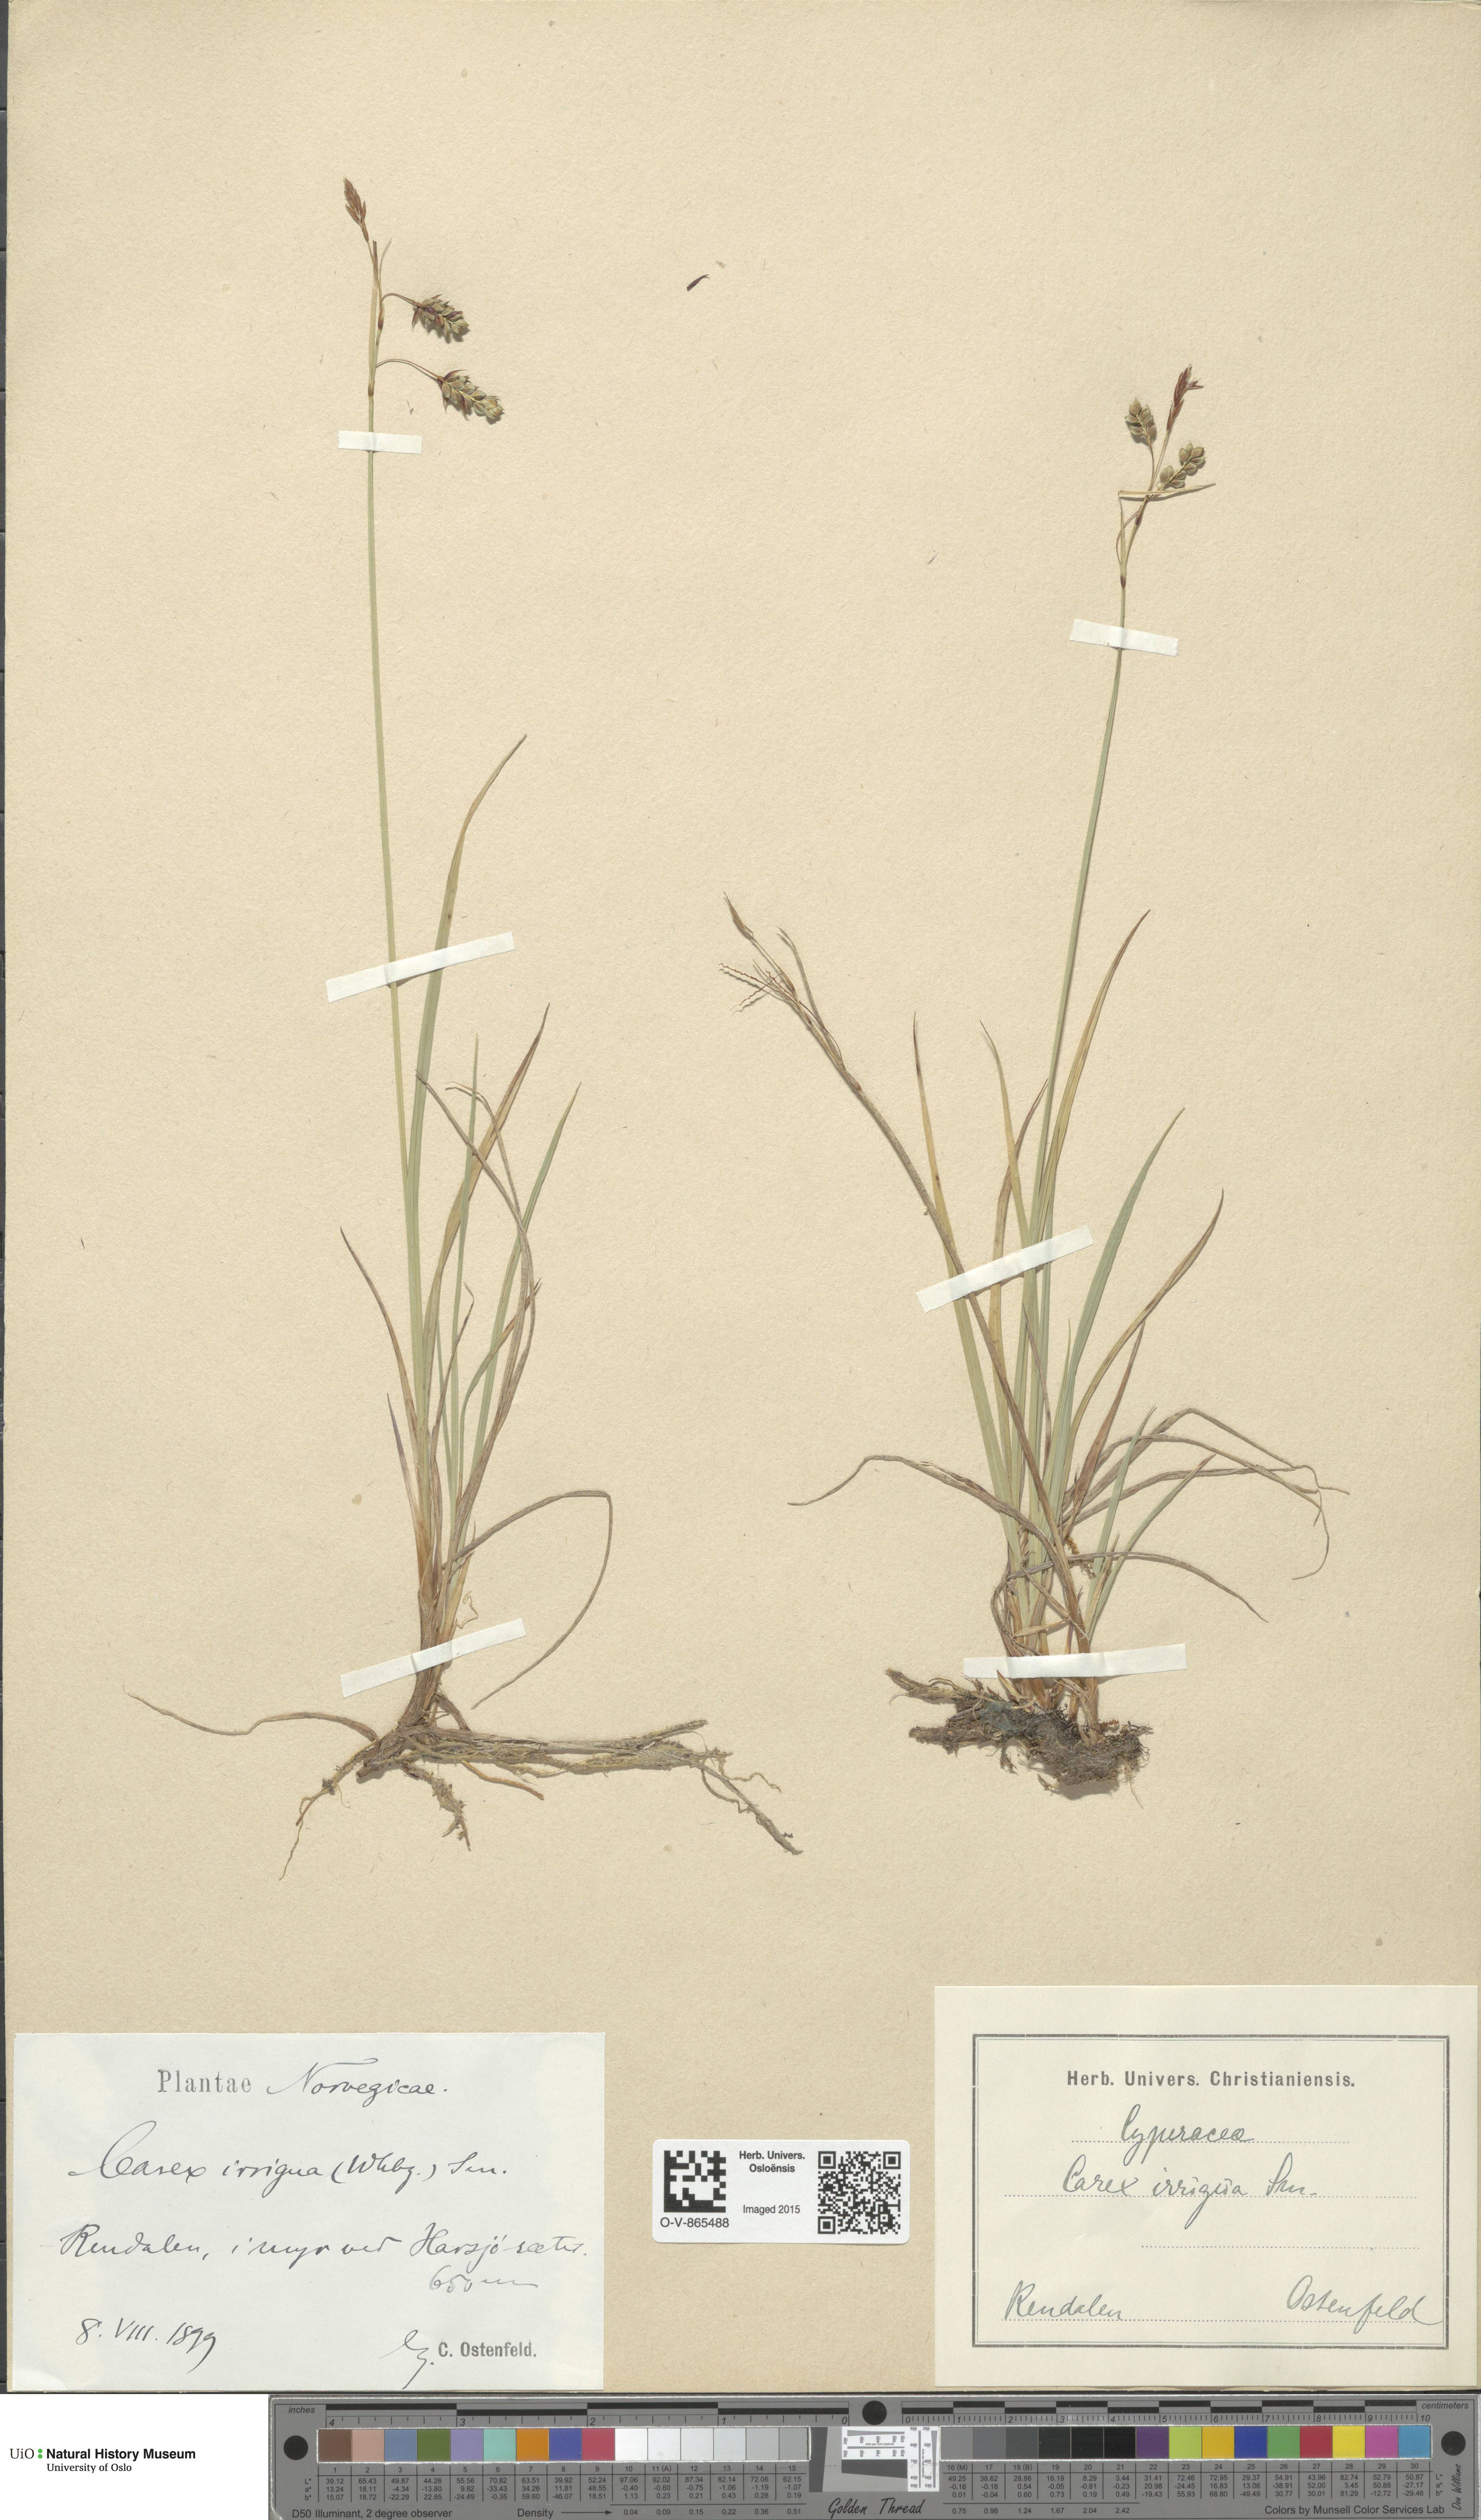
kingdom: Plantae
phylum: Tracheophyta
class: Liliopsida
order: Poales
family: Cyperaceae
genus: Carex
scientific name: Carex magellanica
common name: Bog sedge
